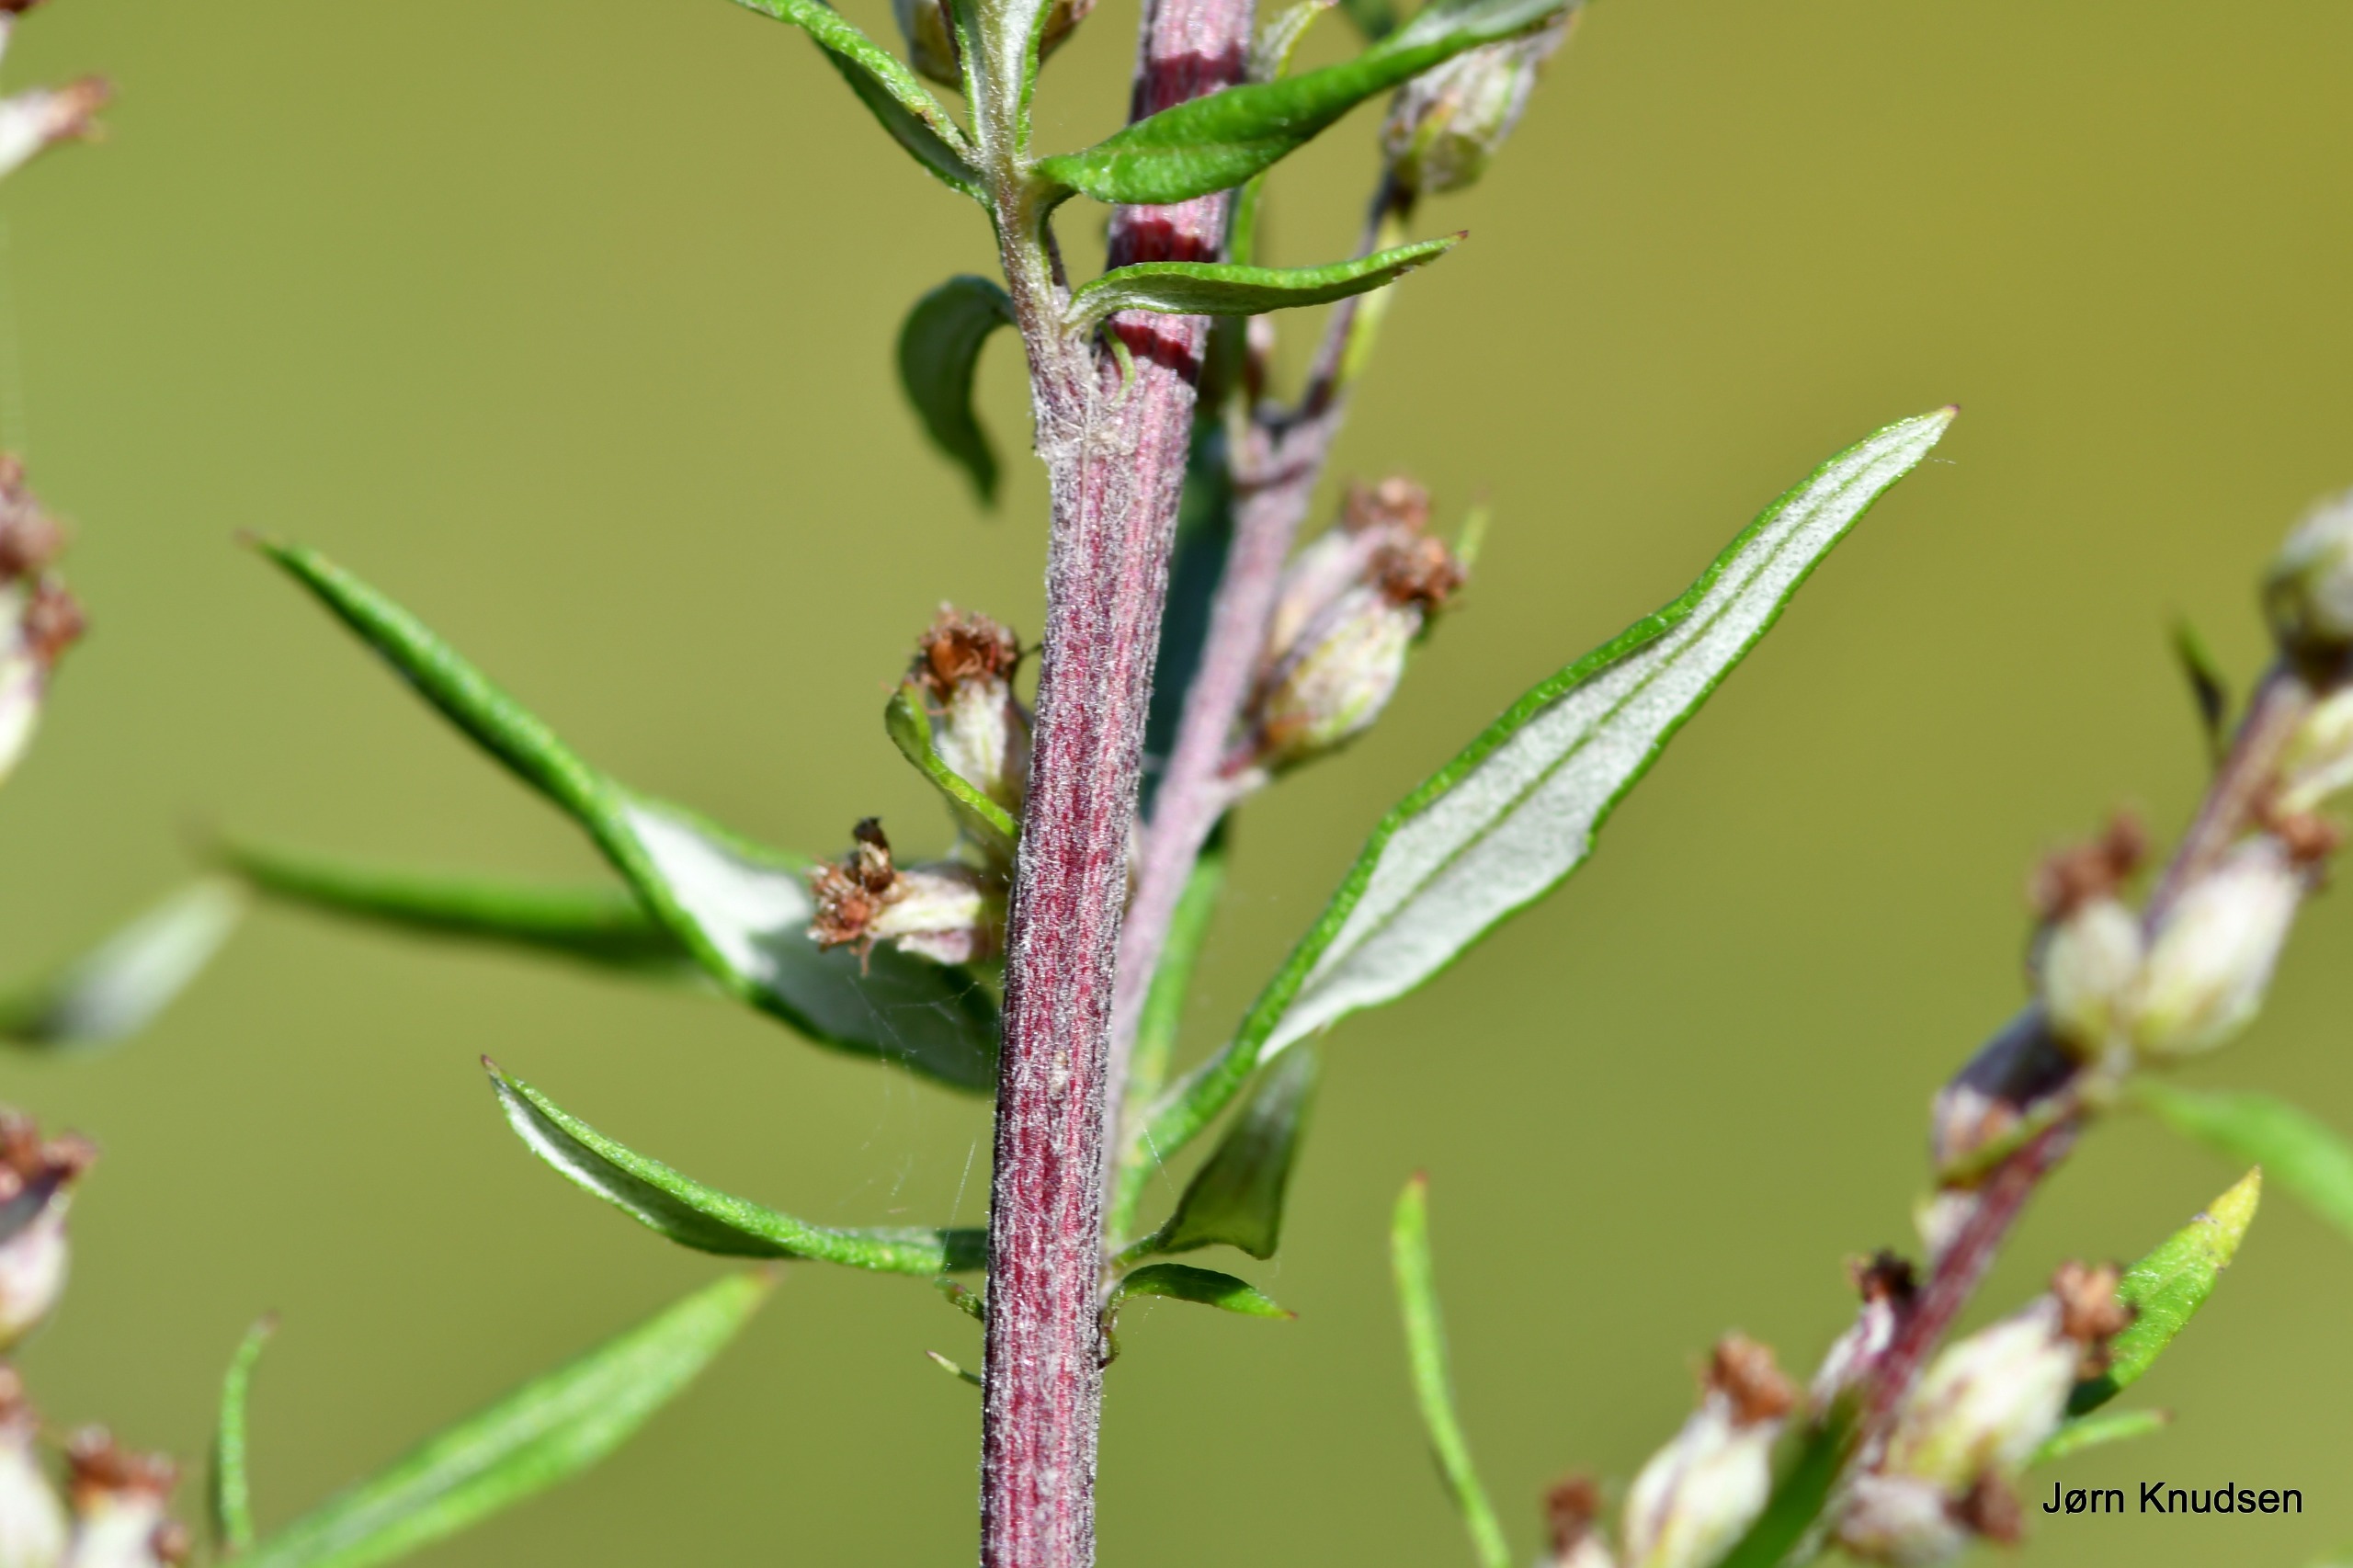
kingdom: Plantae
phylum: Tracheophyta
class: Magnoliopsida
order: Asterales
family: Asteraceae
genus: Artemisia
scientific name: Artemisia vulgaris
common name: Grå-bynke
